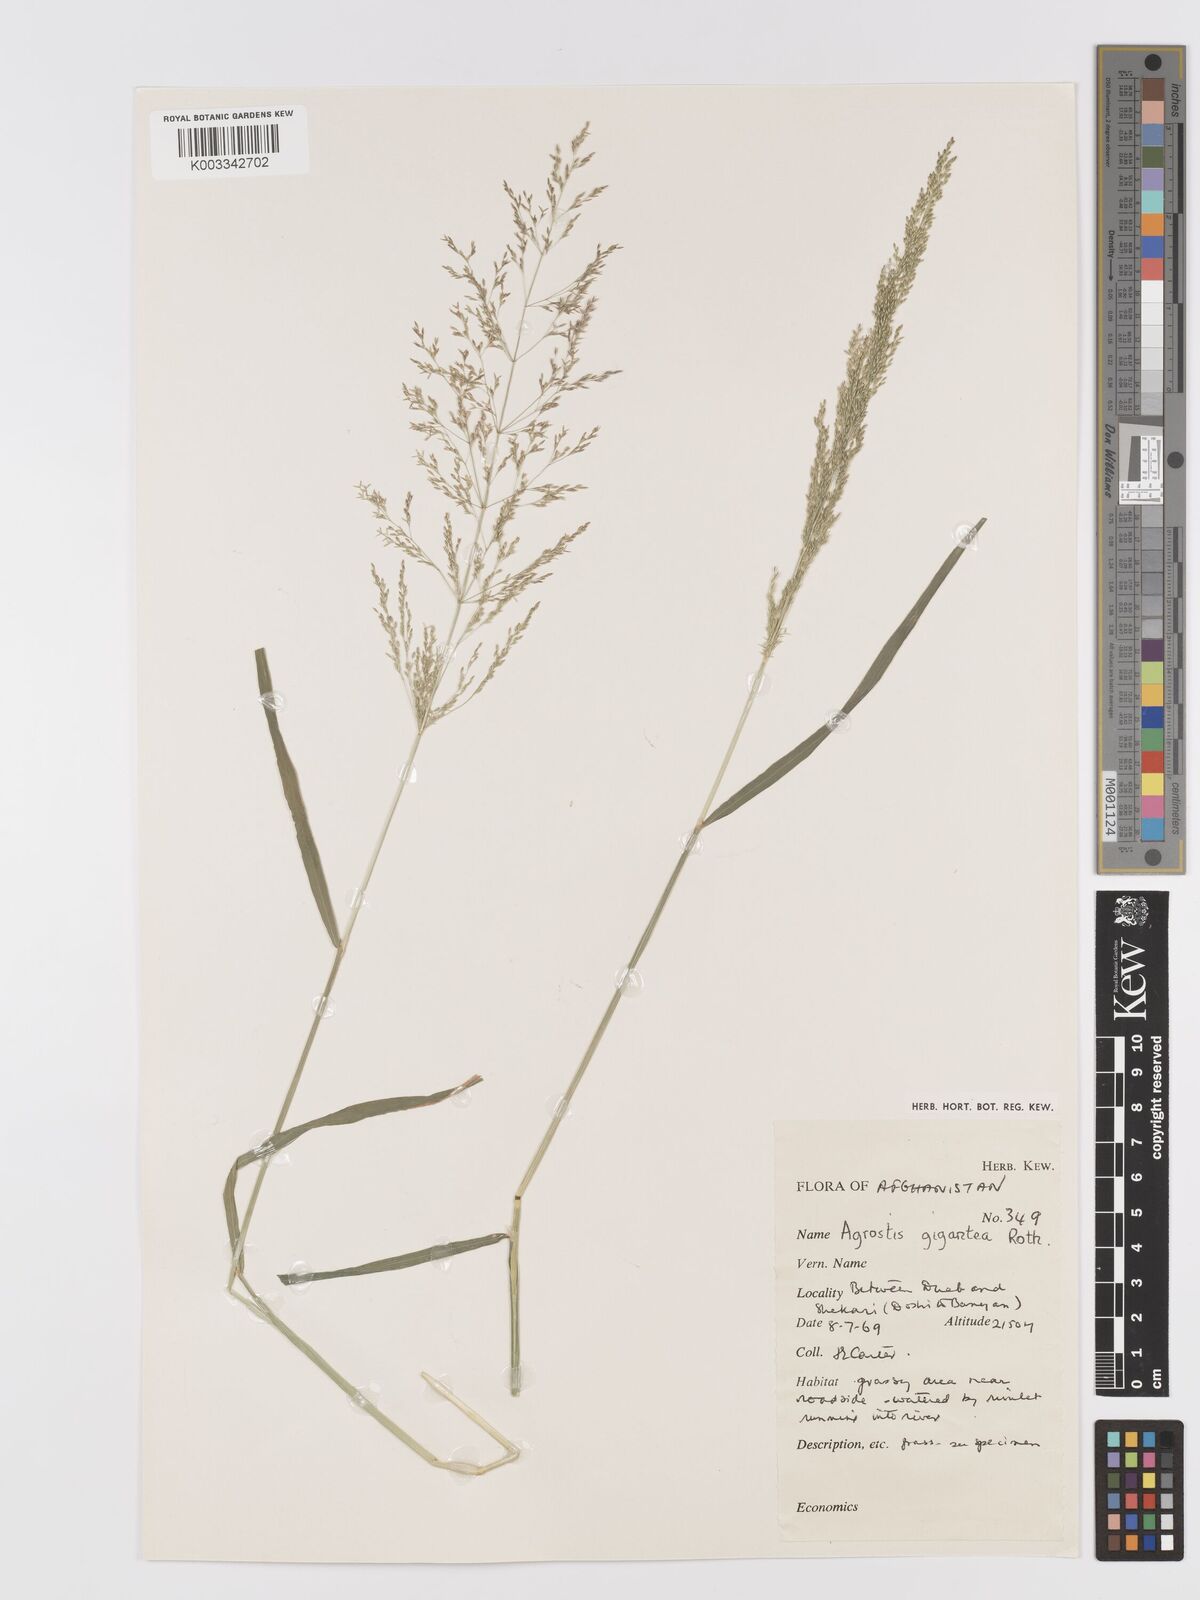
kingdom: Plantae
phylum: Tracheophyta
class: Liliopsida
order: Poales
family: Poaceae
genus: Agrostis
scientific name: Agrostis gigantea
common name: Black bent
